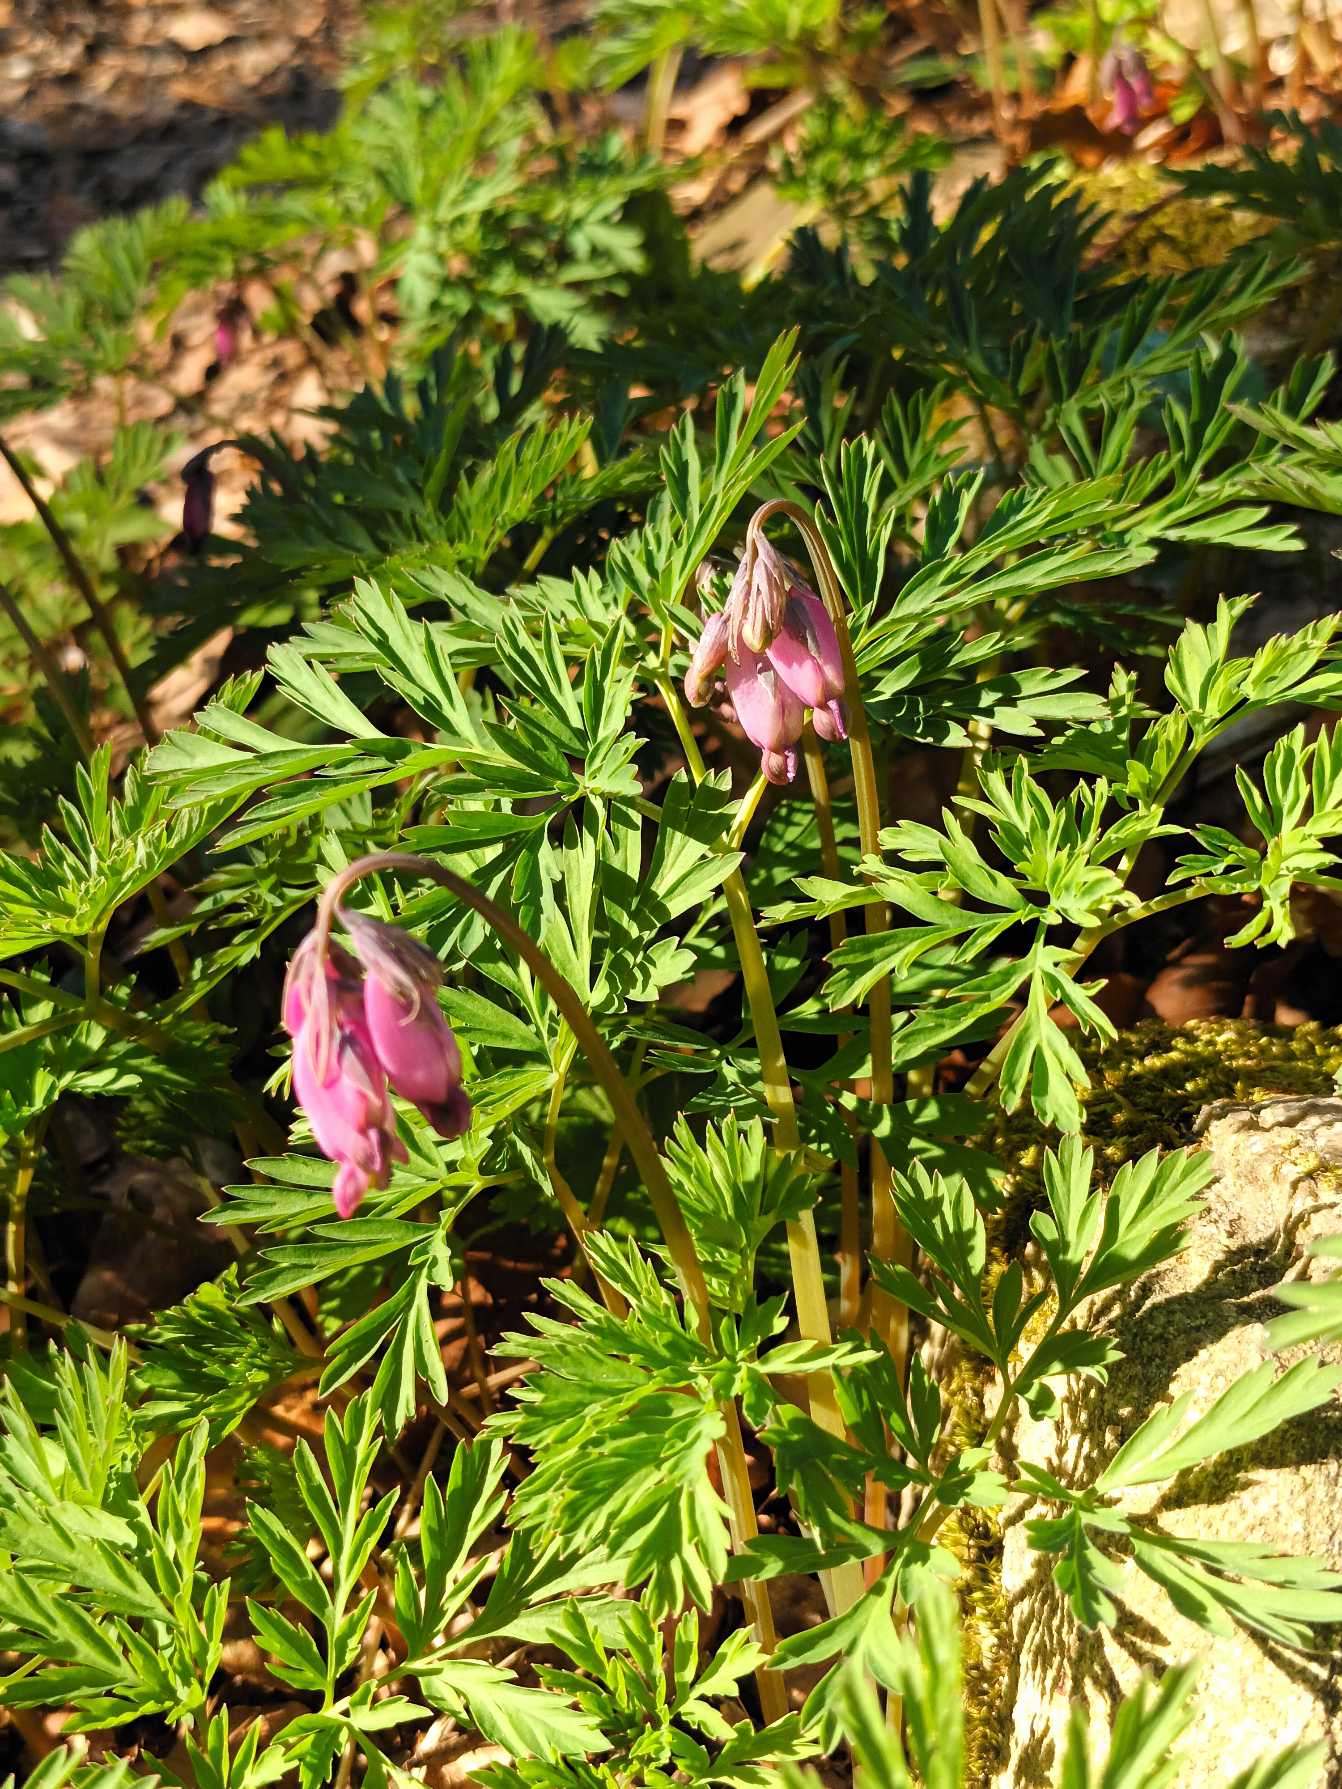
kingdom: Plantae
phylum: Tracheophyta
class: Magnoliopsida
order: Ranunculales
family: Papaveraceae
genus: Dicentra
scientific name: Dicentra formosa
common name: Småhjerte
